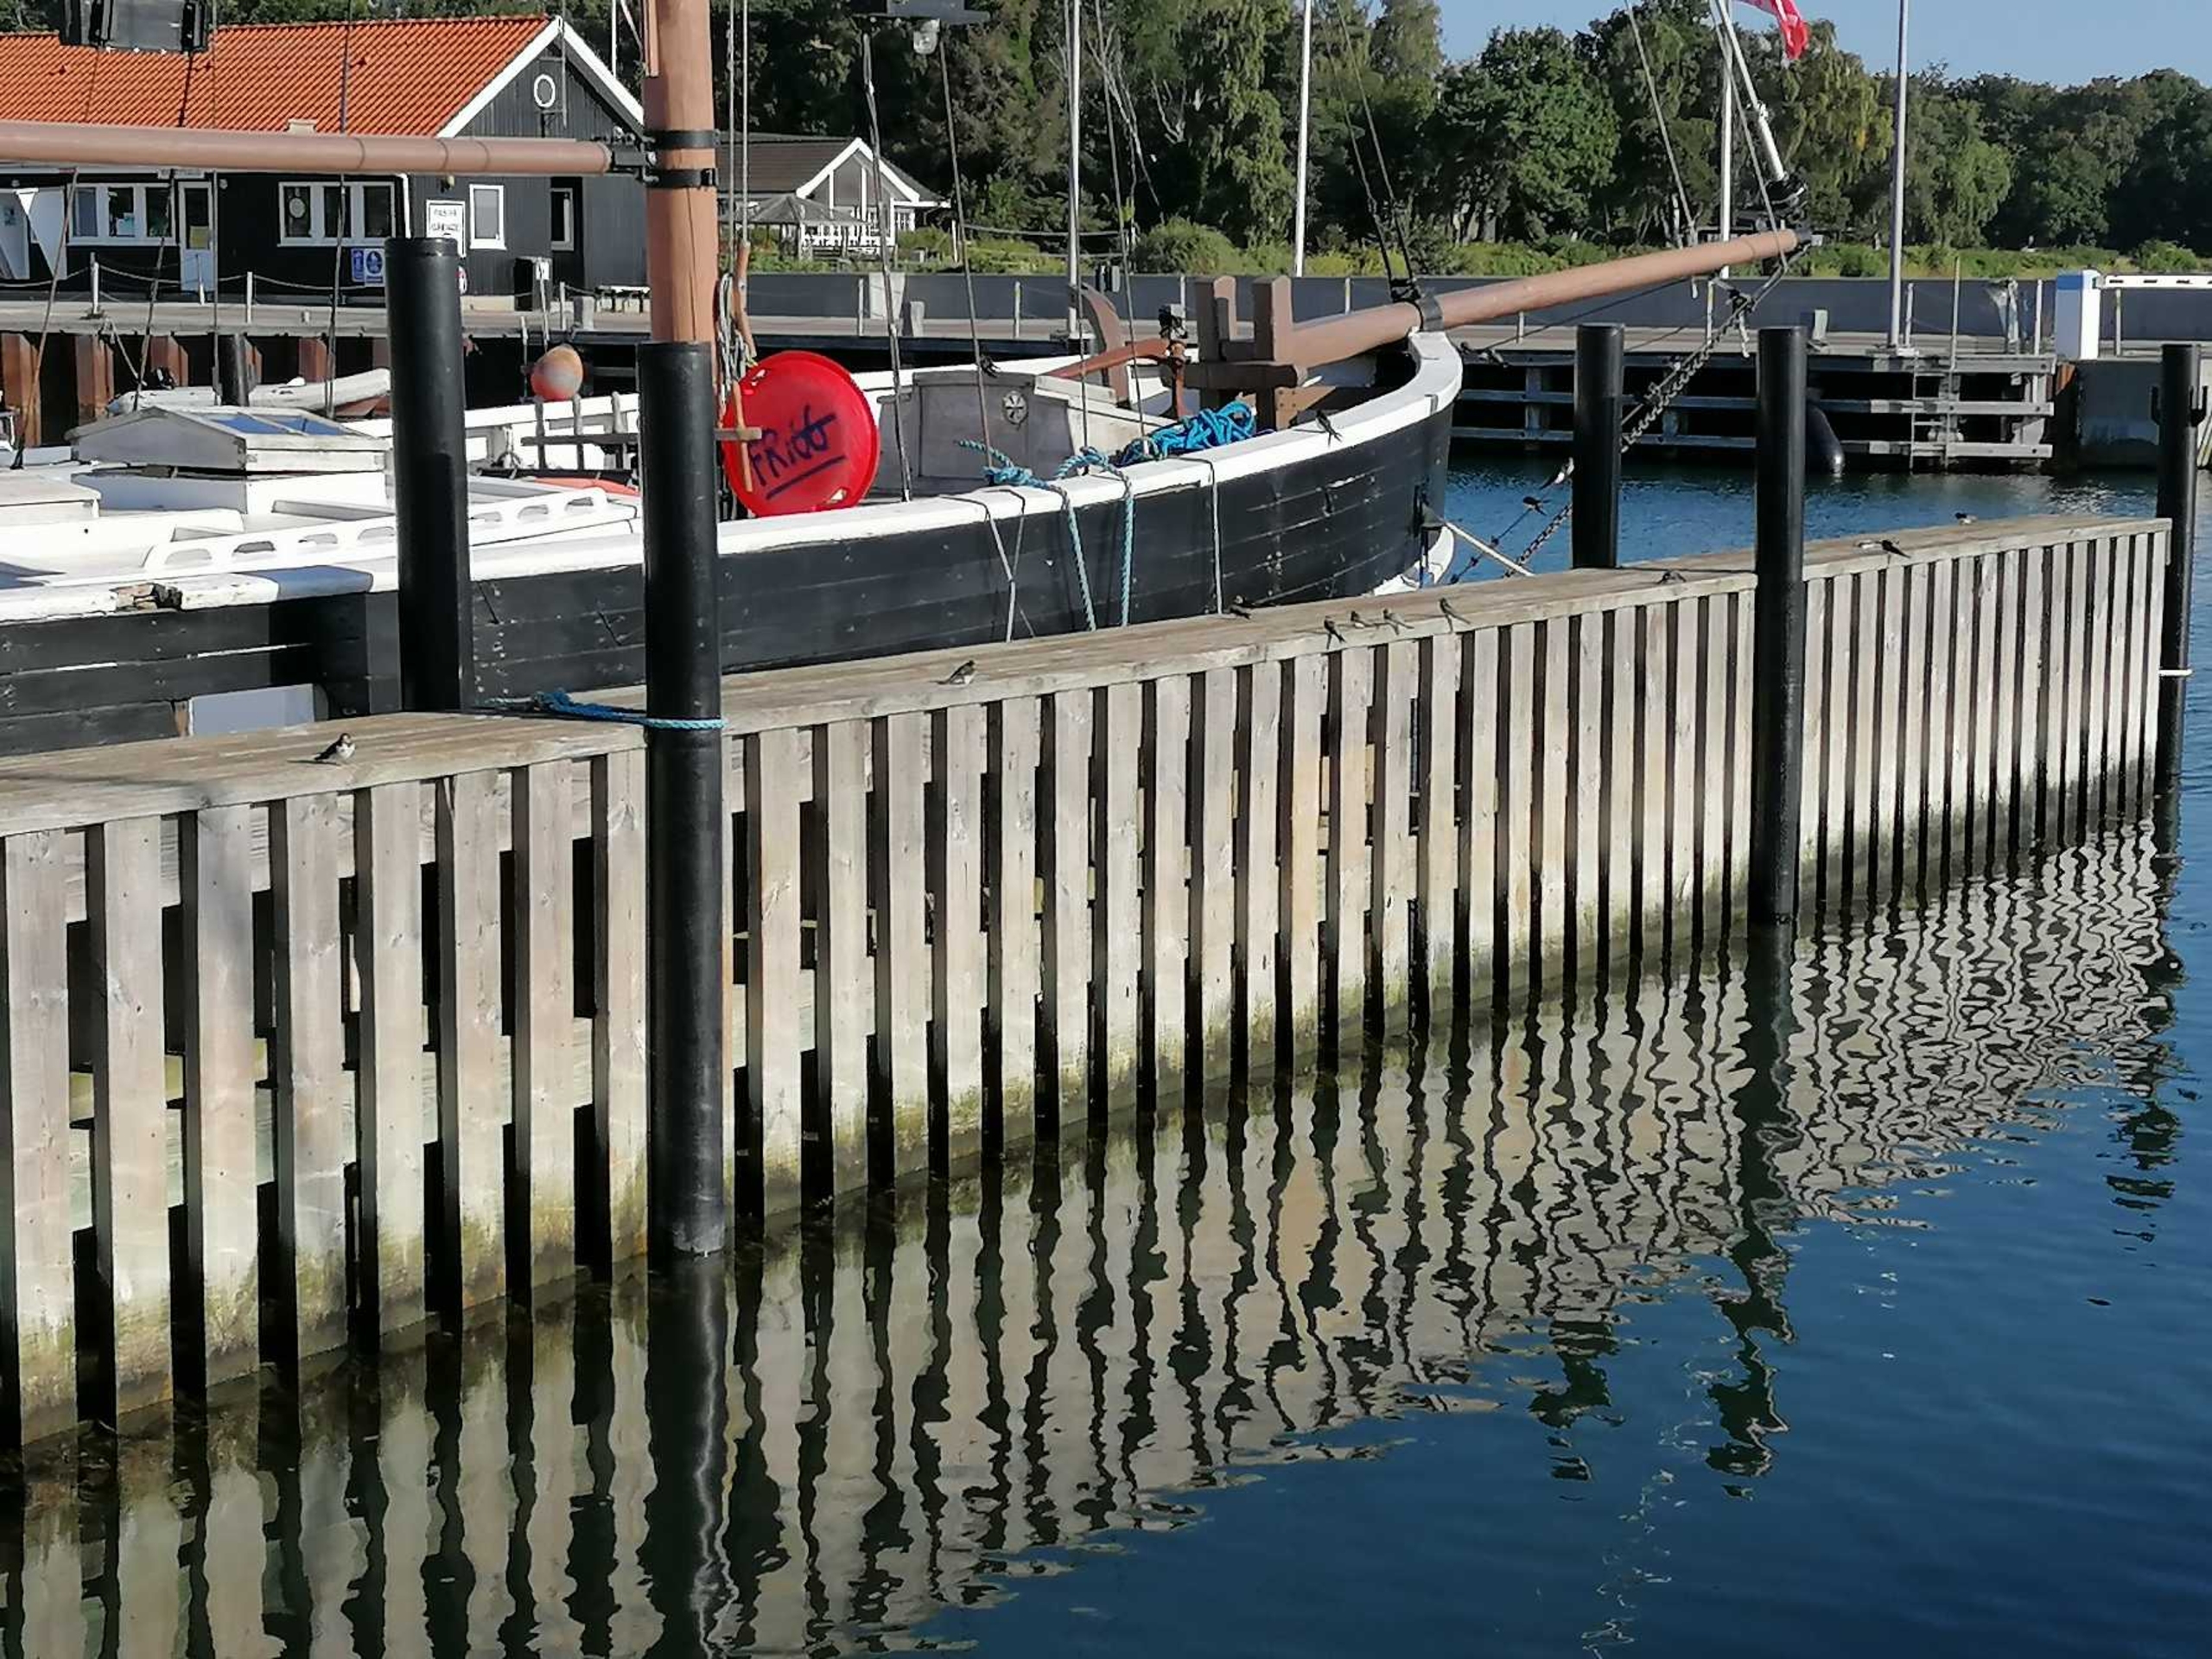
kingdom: Animalia
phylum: Chordata
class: Aves
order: Passeriformes
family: Hirundinidae
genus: Hirundo
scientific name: Hirundo rustica
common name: Landsvale
